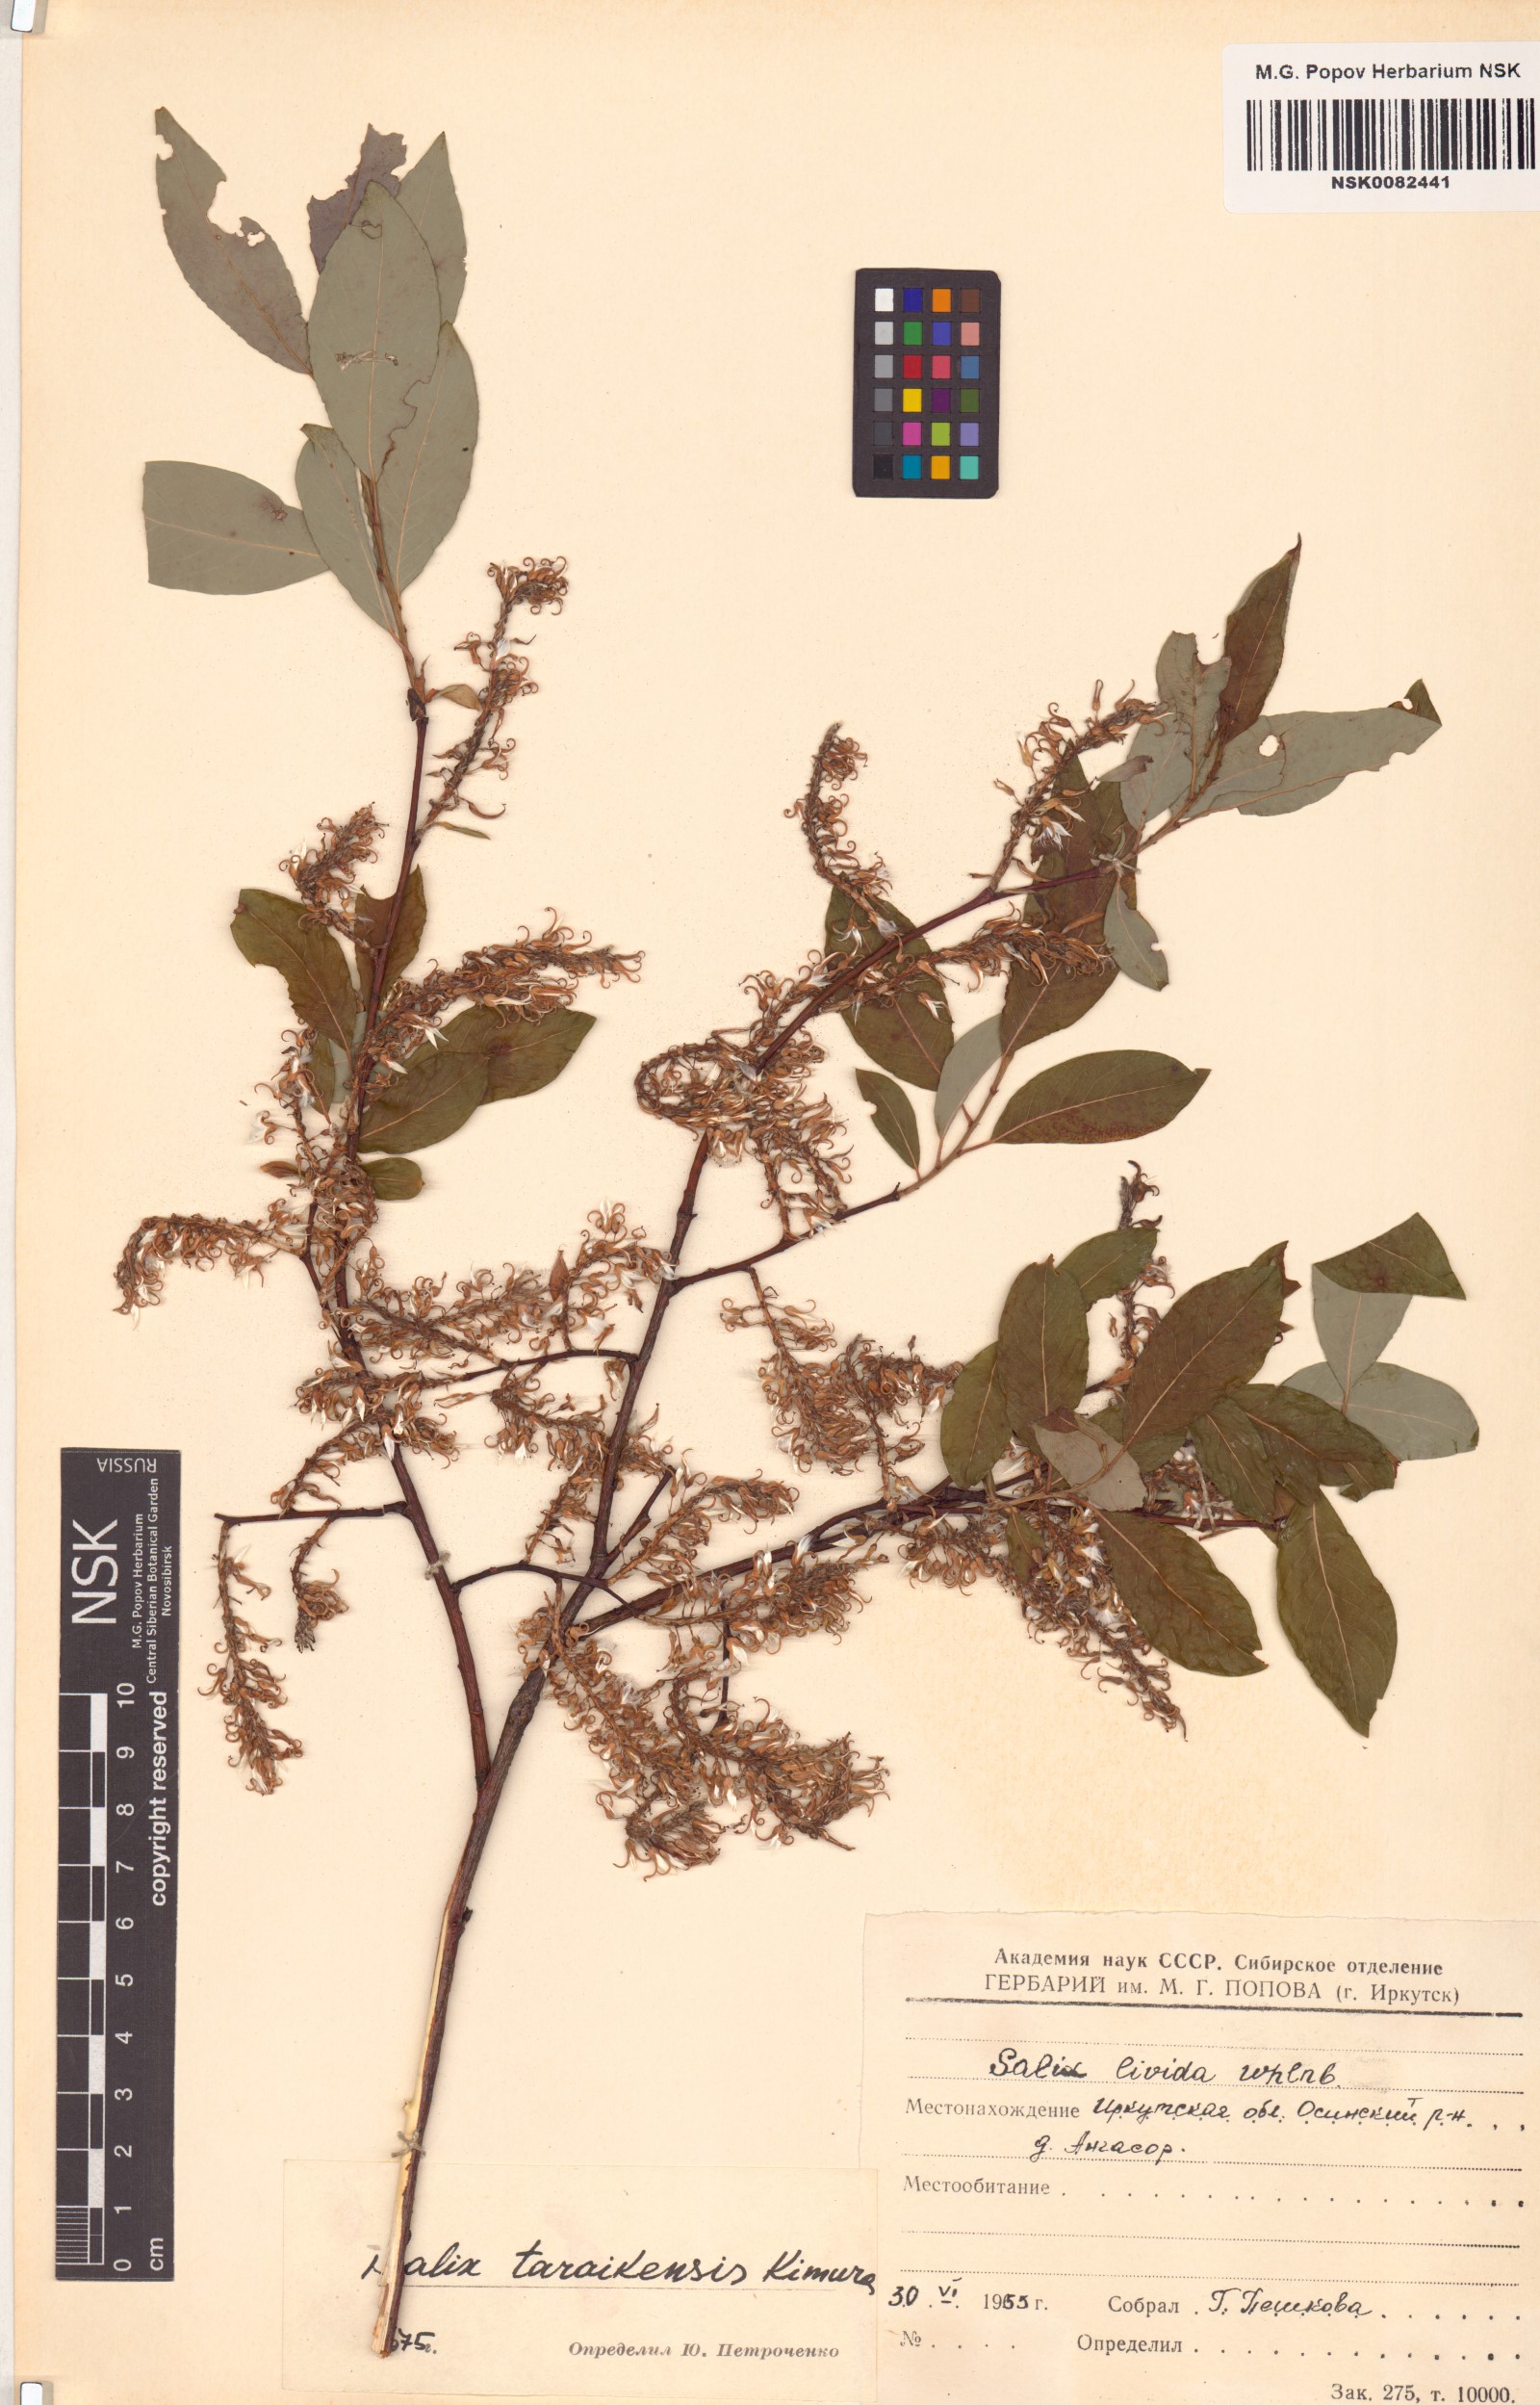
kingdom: Plantae
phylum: Tracheophyta
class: Magnoliopsida
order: Malpighiales
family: Salicaceae
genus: Salix
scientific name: Salix taraikensis
